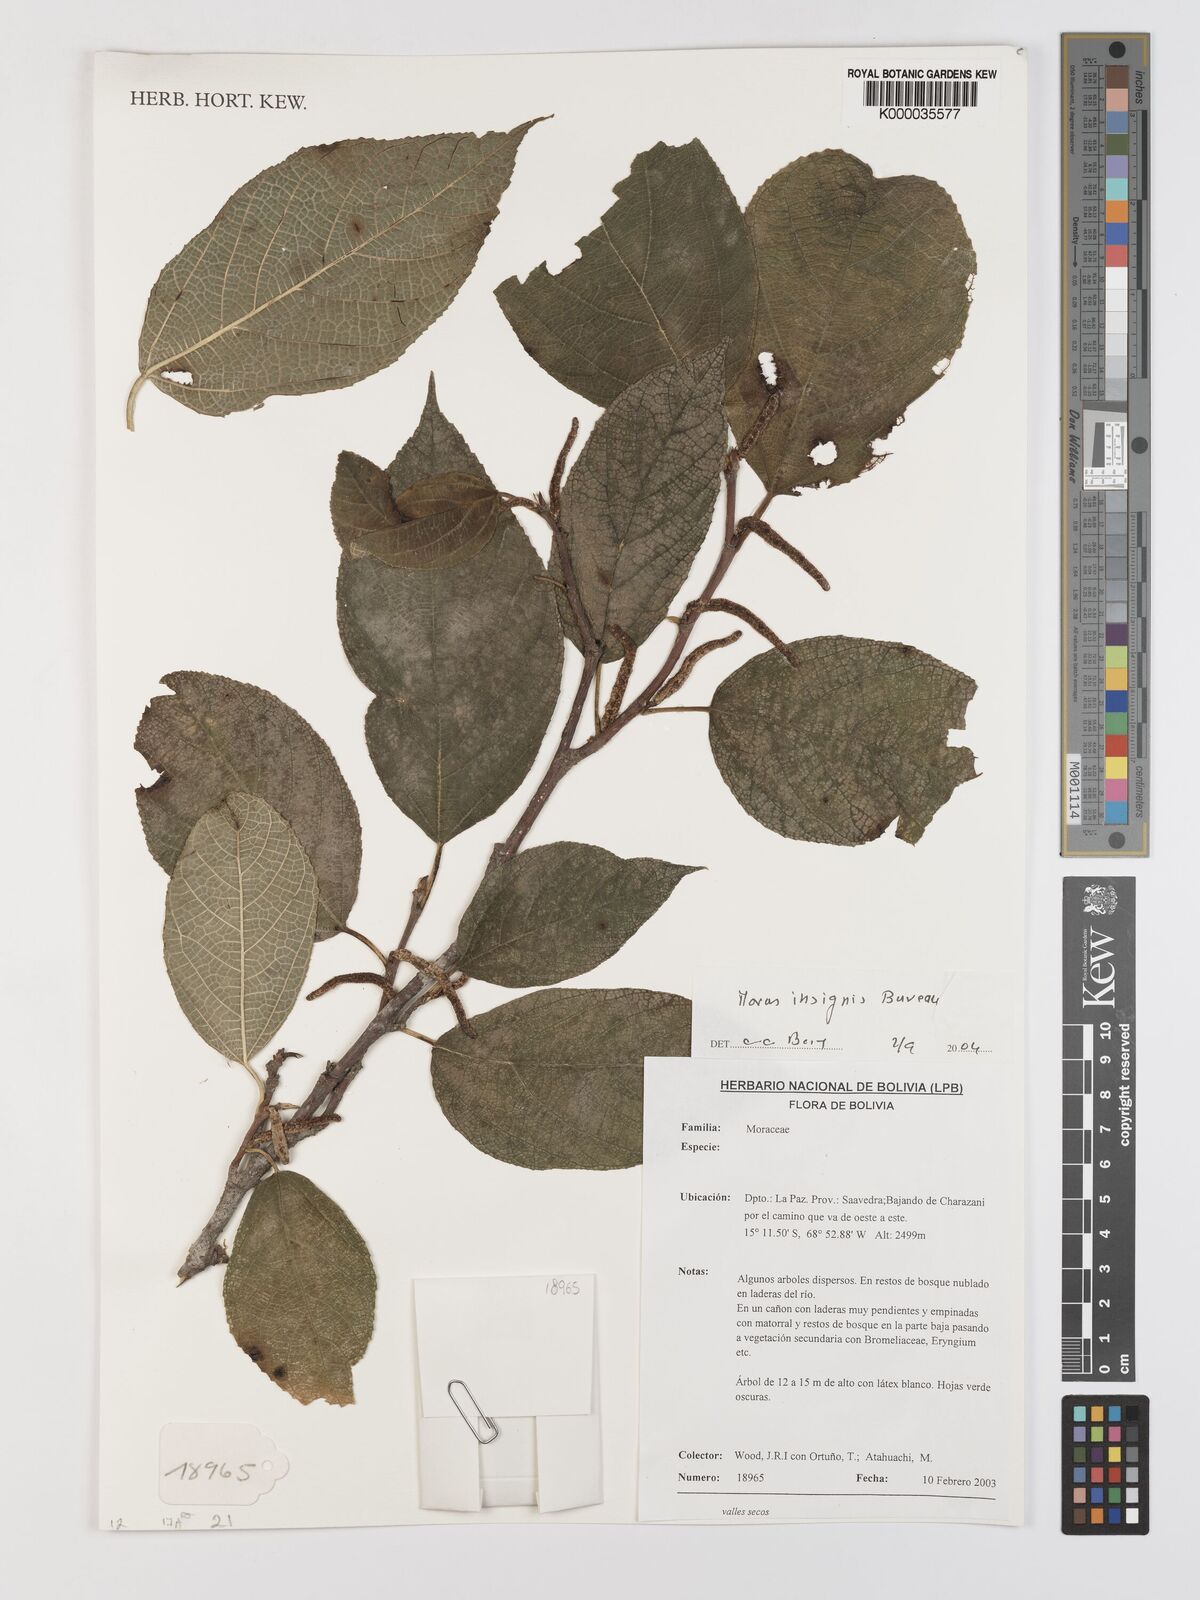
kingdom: Plantae
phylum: Tracheophyta
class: Magnoliopsida
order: Rosales
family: Moraceae
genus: Paratrophis
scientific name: Paratrophis insignis
